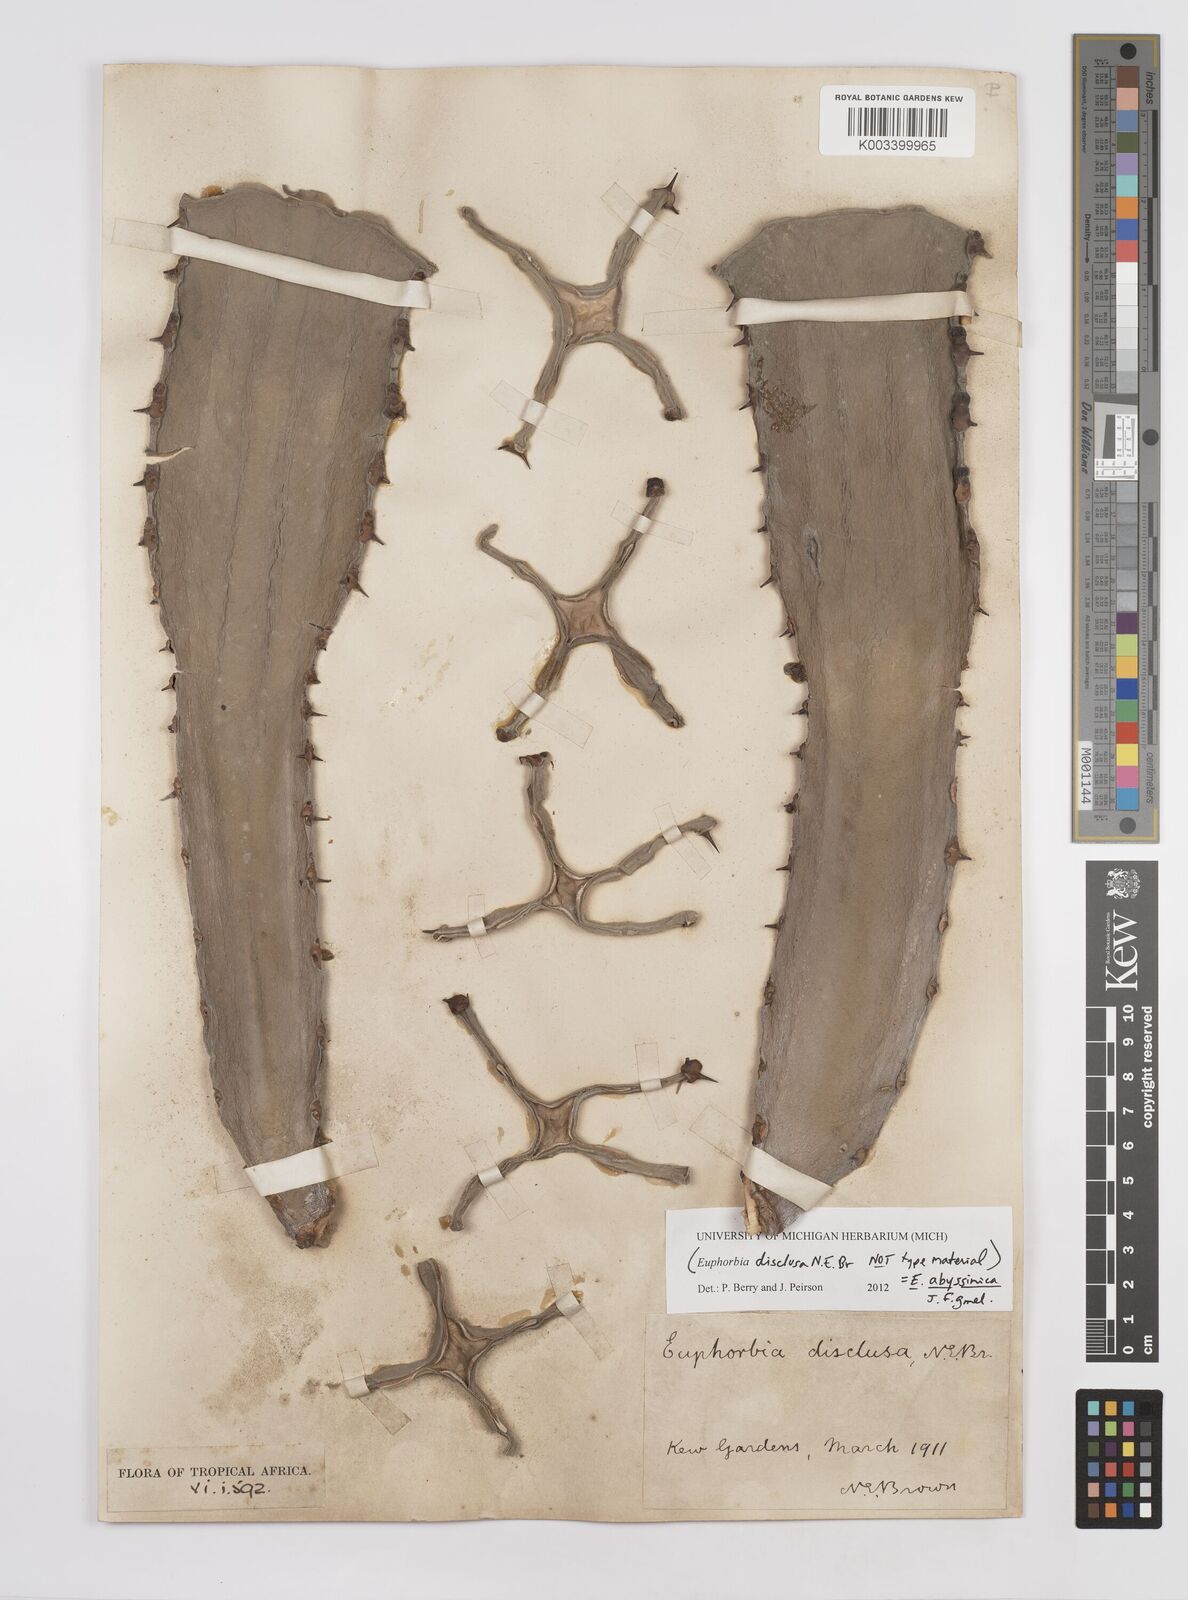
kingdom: Plantae
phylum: Tracheophyta
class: Magnoliopsida
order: Malpighiales
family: Euphorbiaceae
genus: Euphorbia
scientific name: Euphorbia abyssinica
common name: Abyssinian spurge
